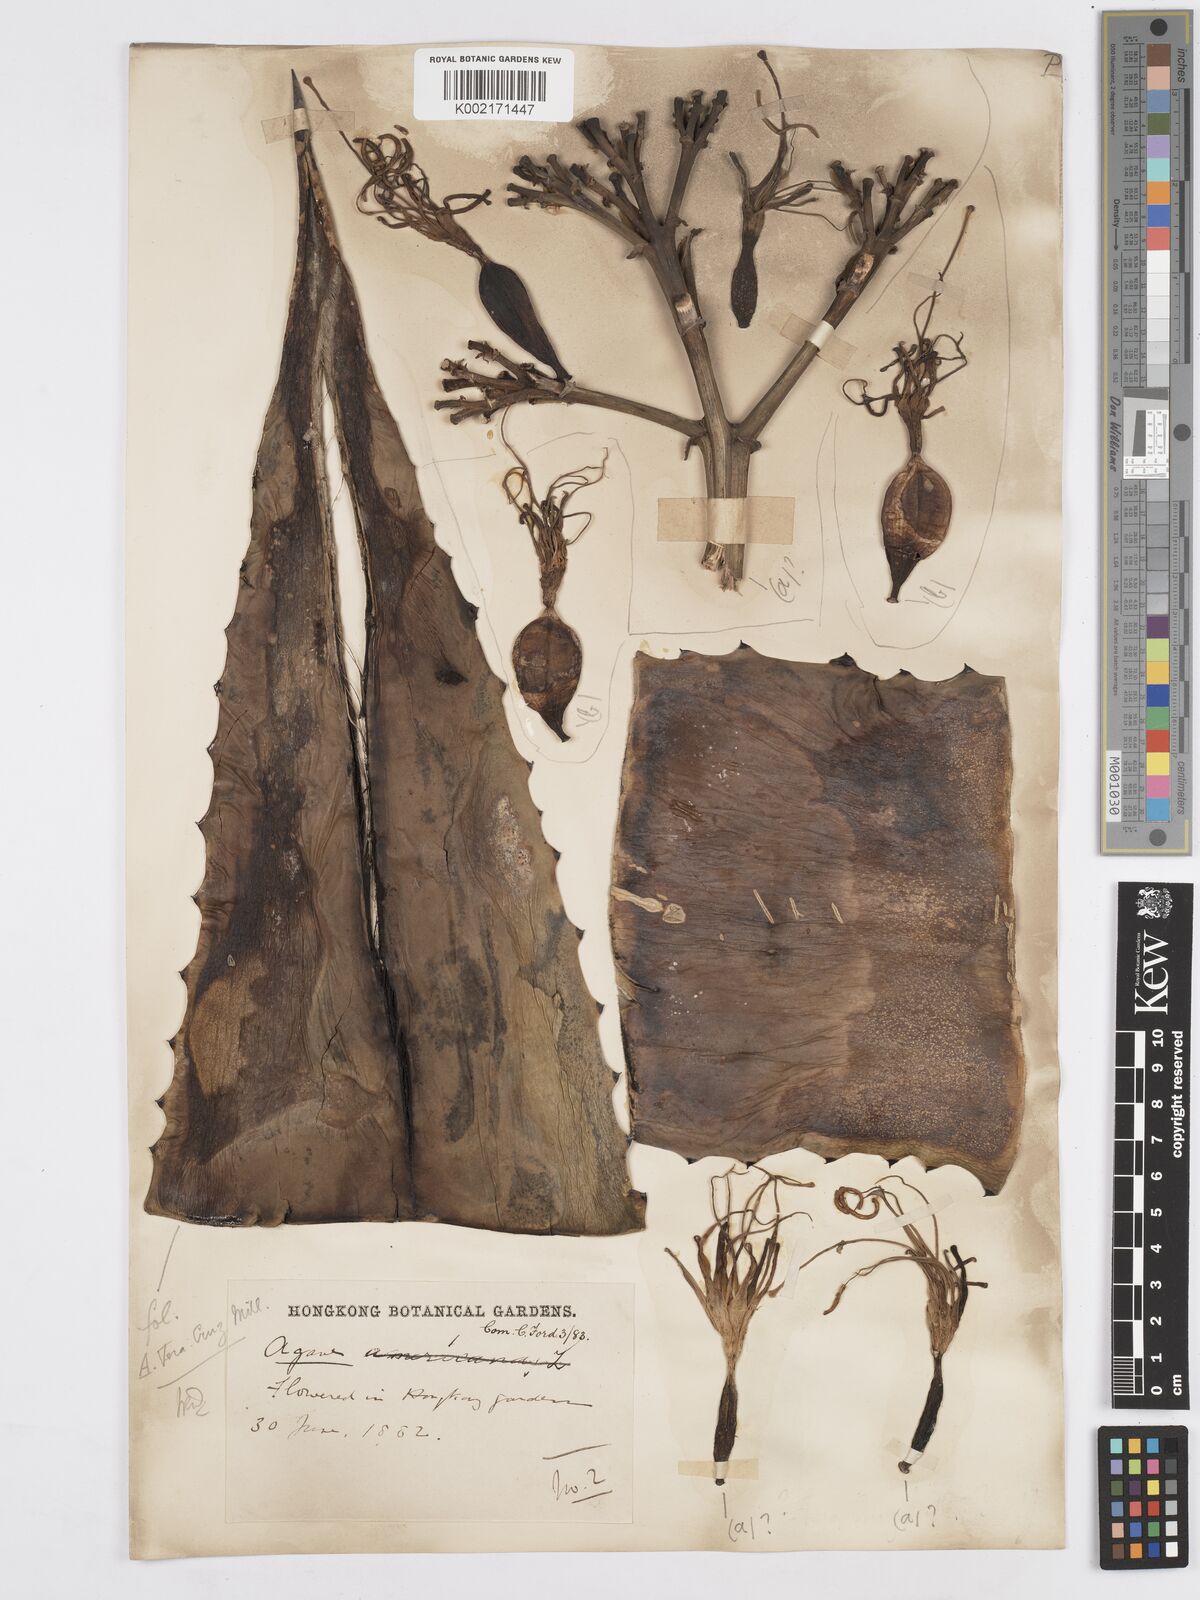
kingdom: Plantae
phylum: Tracheophyta
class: Liliopsida
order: Asparagales
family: Asparagaceae
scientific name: Asparagaceae
